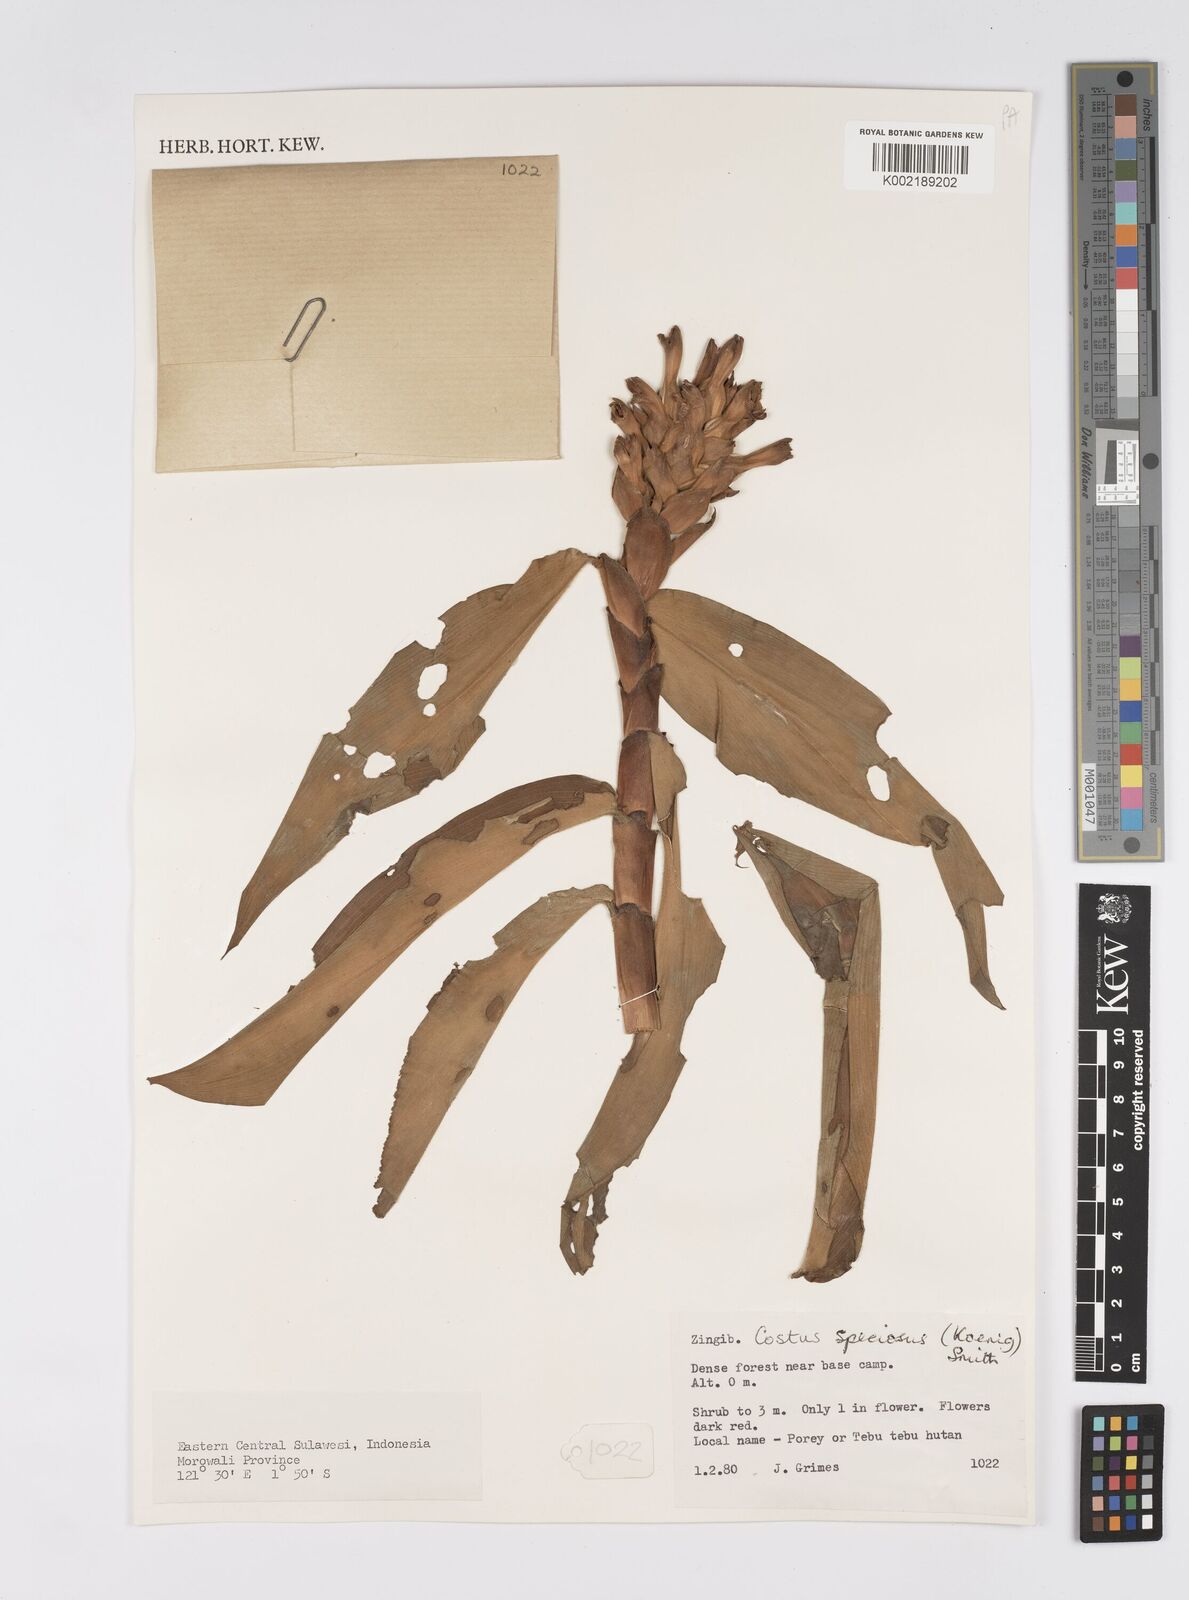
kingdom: Plantae
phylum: Tracheophyta
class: Liliopsida
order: Zingiberales
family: Costaceae
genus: Hellenia
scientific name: Hellenia speciosa
